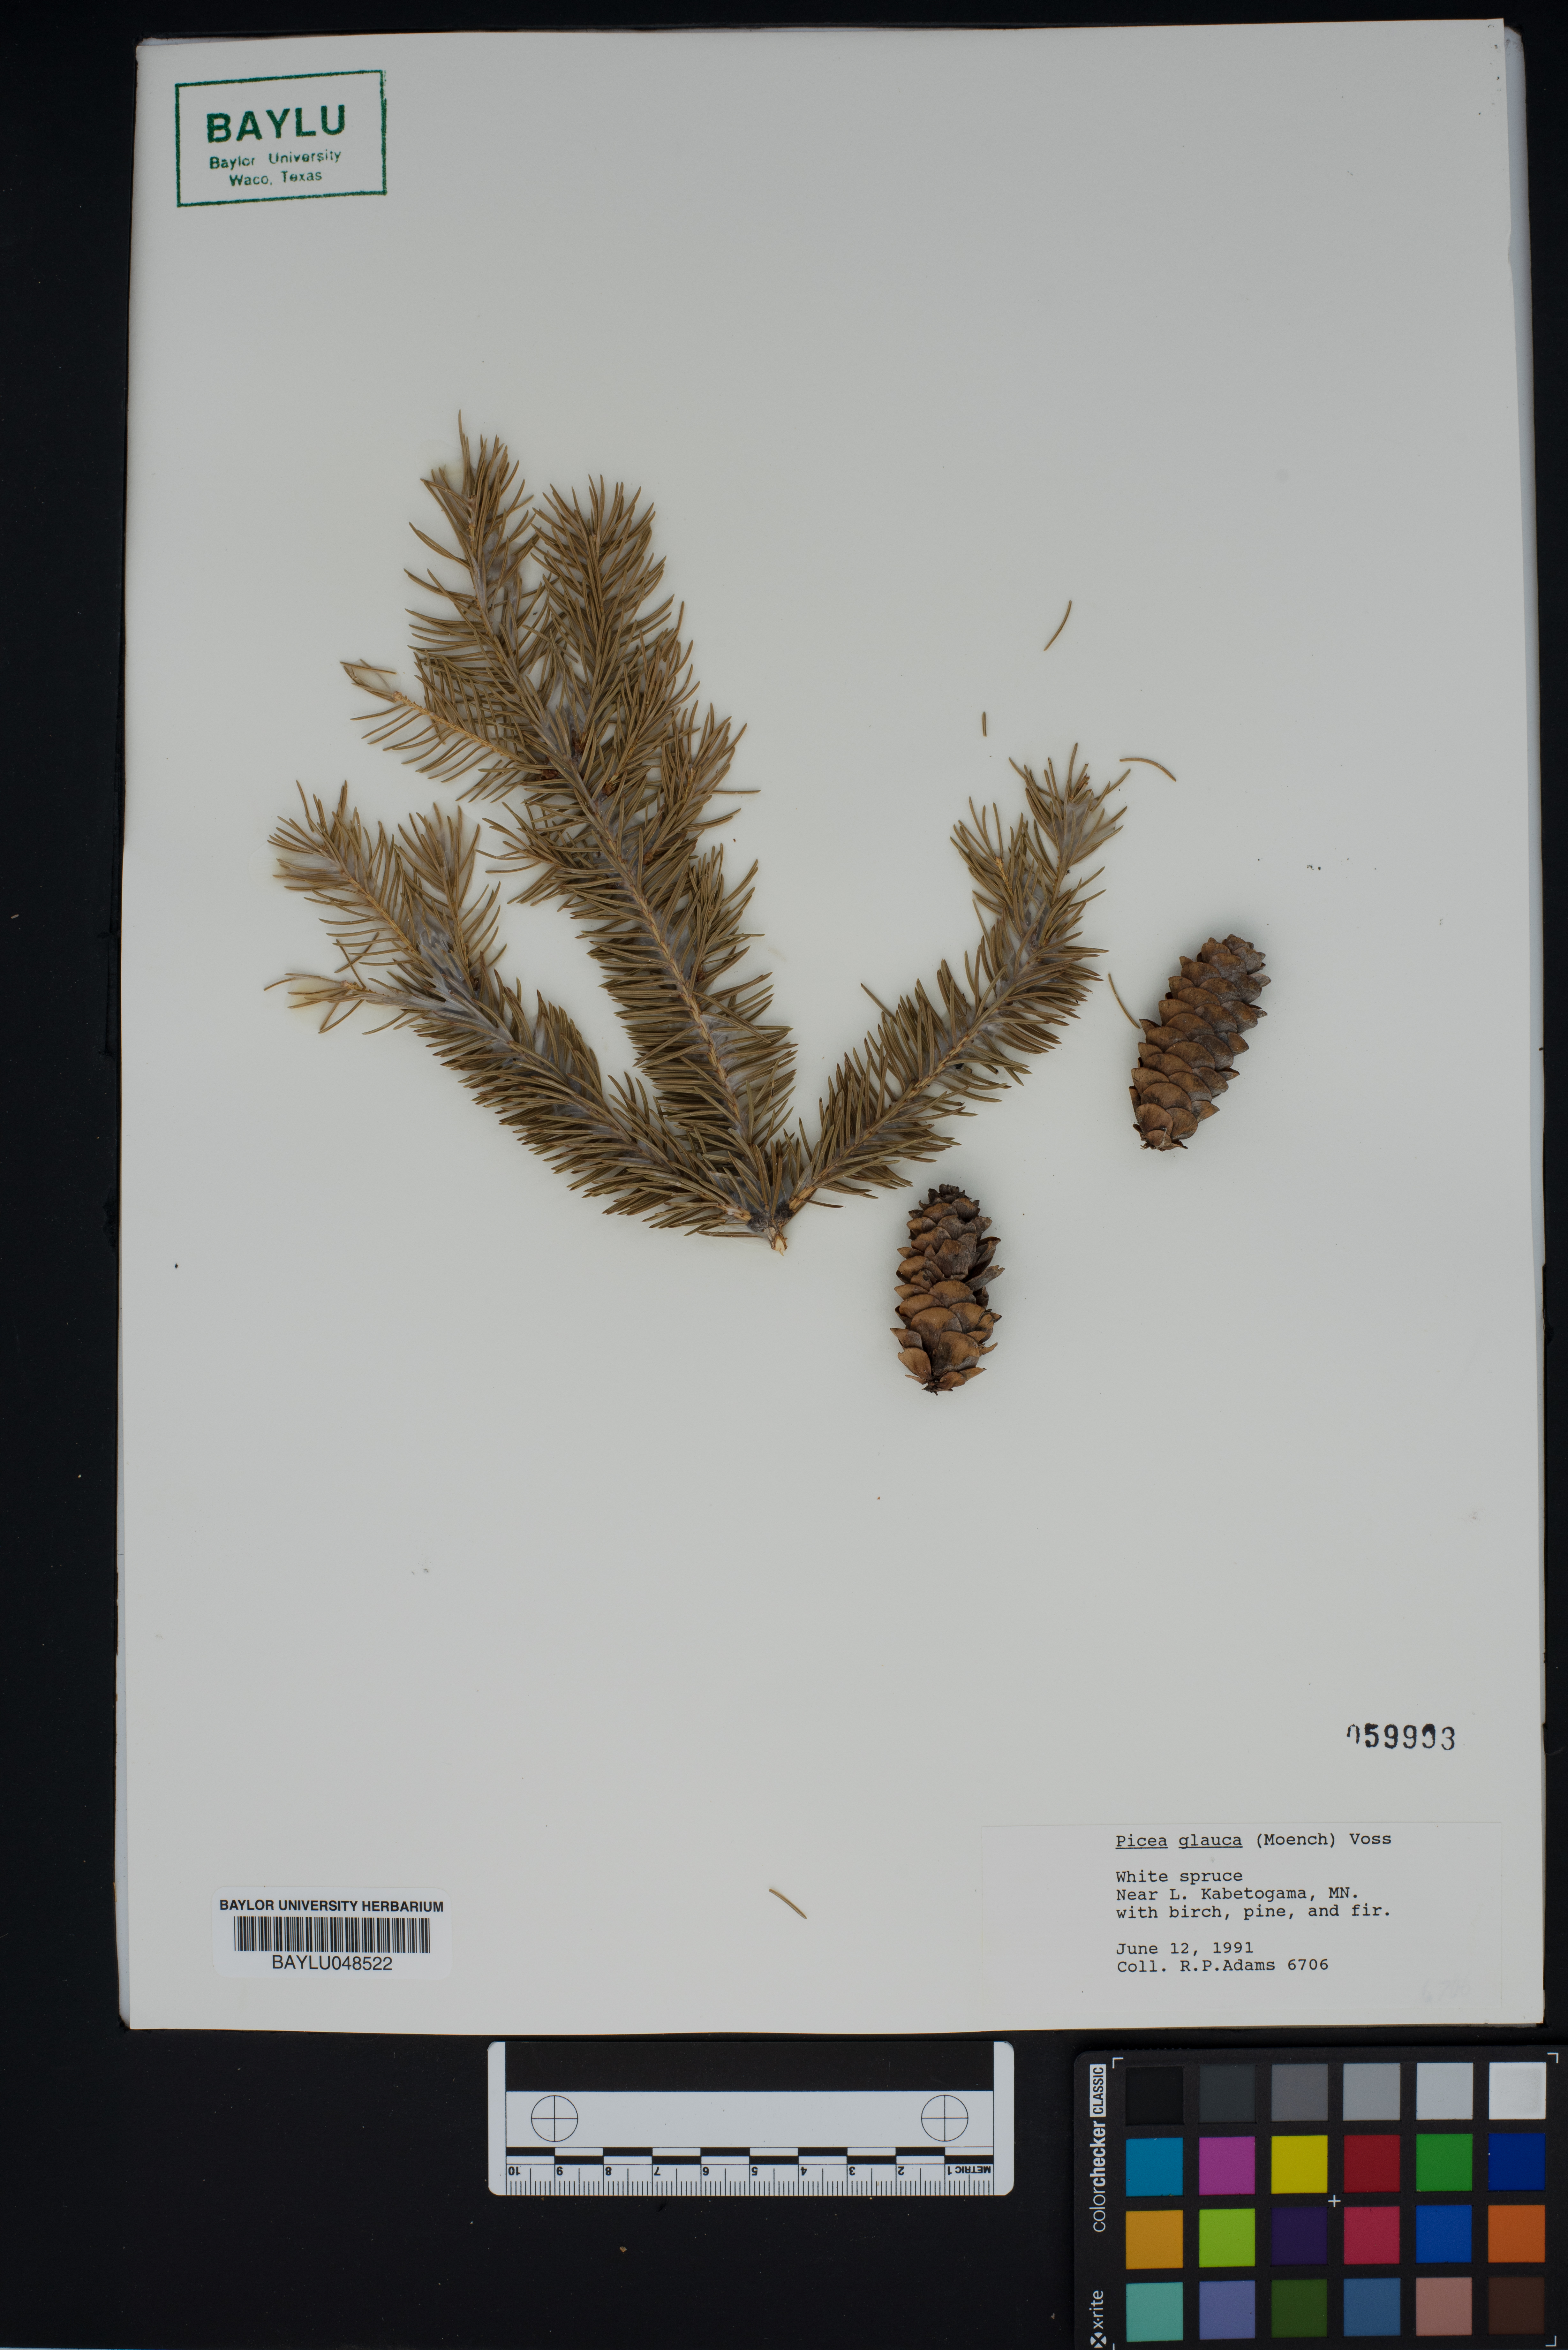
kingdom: Plantae
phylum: Tracheophyta
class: Pinopsida
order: Pinales
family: Pinaceae
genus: Picea
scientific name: Picea glauca
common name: White spruce
